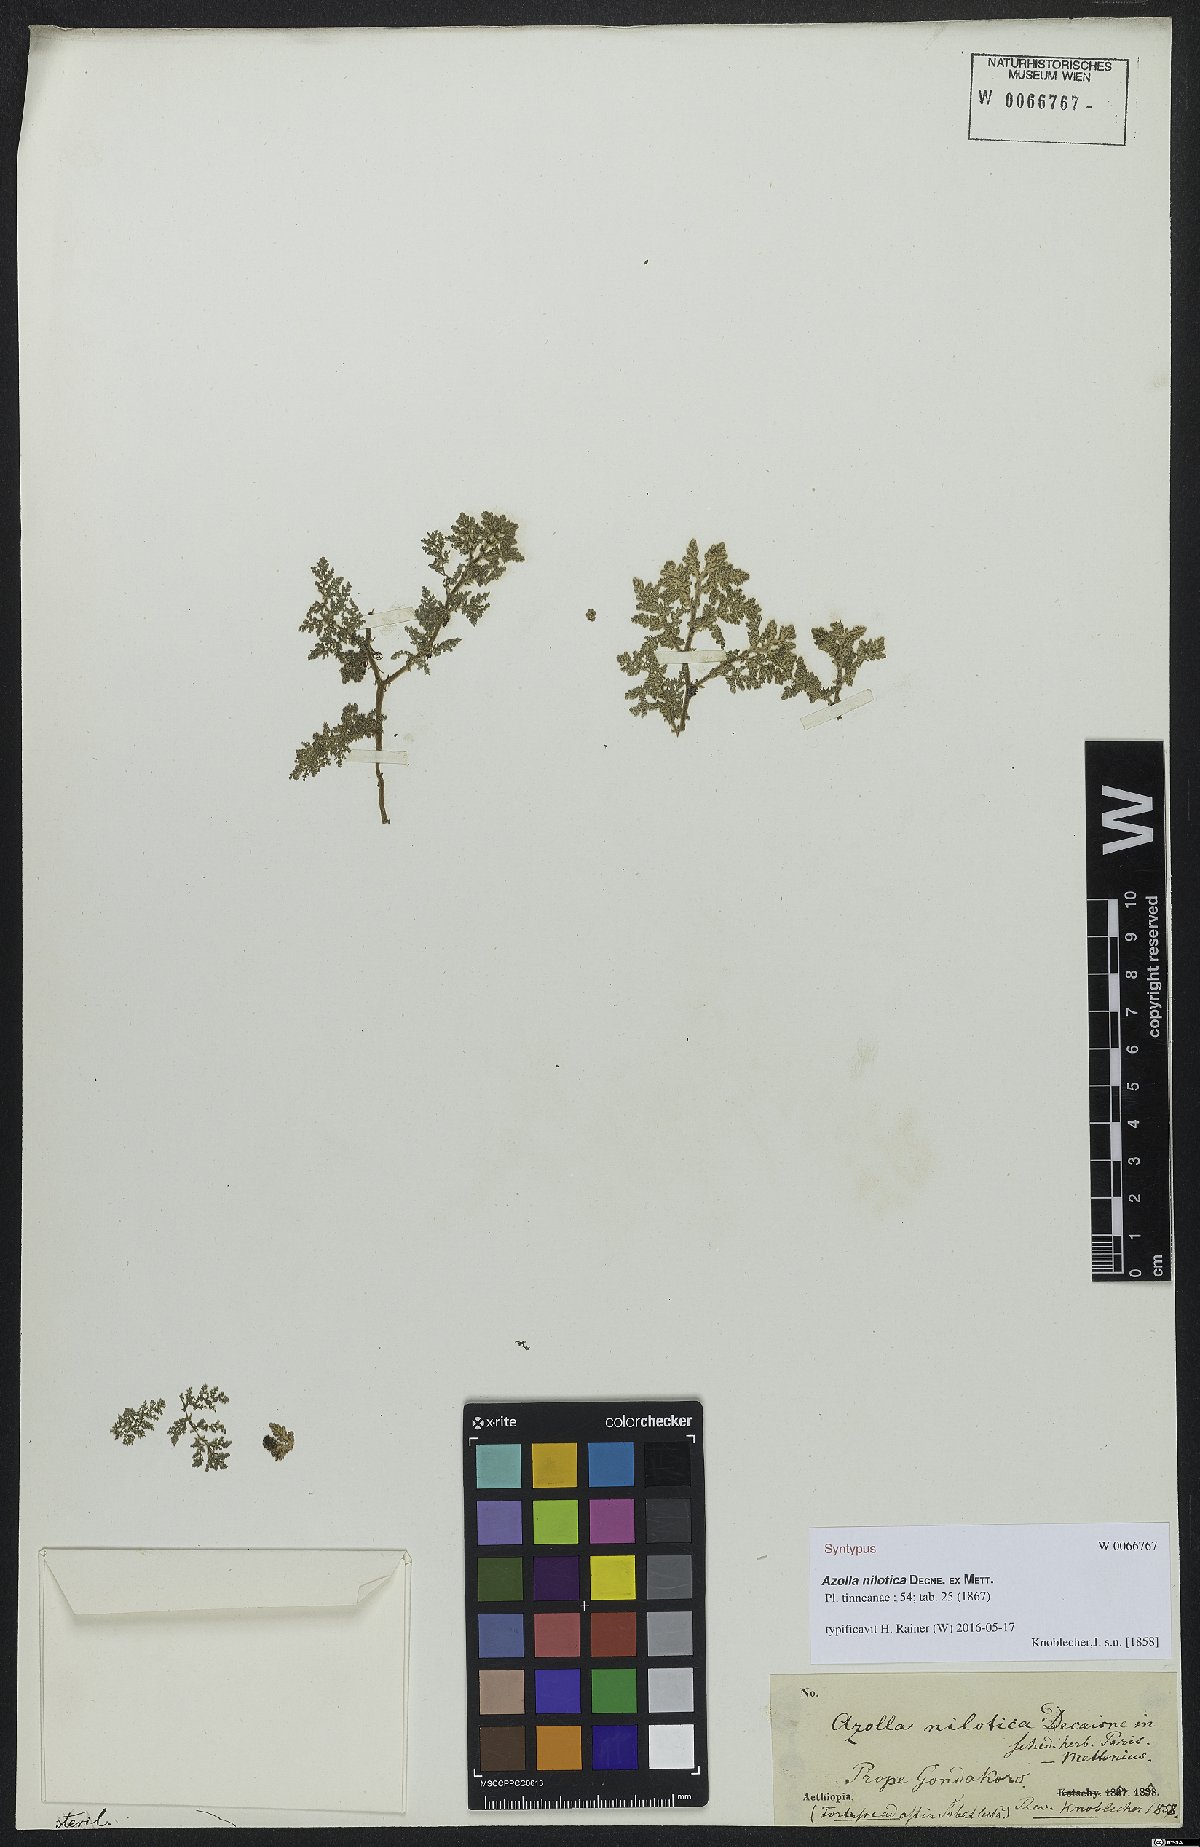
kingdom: Plantae
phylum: Tracheophyta
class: Polypodiopsida
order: Salviniales
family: Salviniaceae
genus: Azolla
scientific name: Azolla nilotica
